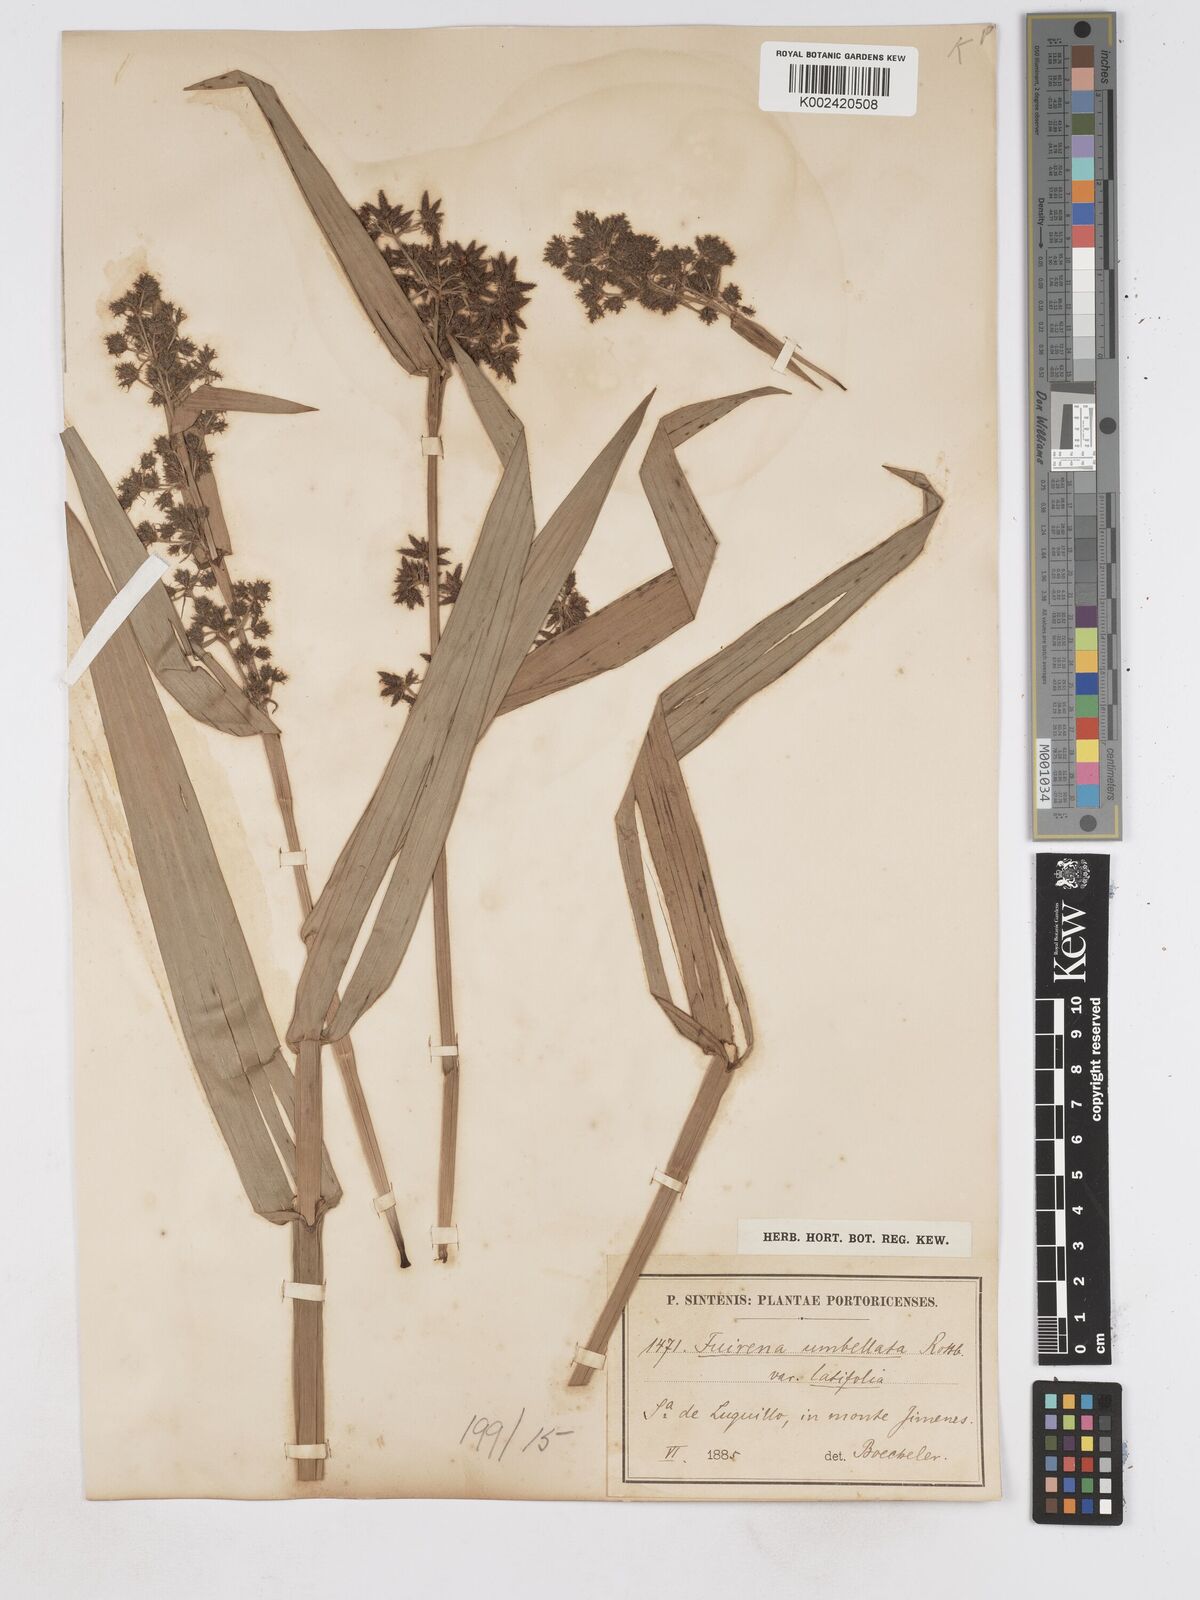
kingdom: Plantae
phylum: Tracheophyta
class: Liliopsida
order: Poales
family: Cyperaceae
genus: Fuirena
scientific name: Fuirena umbellata
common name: Yefen
